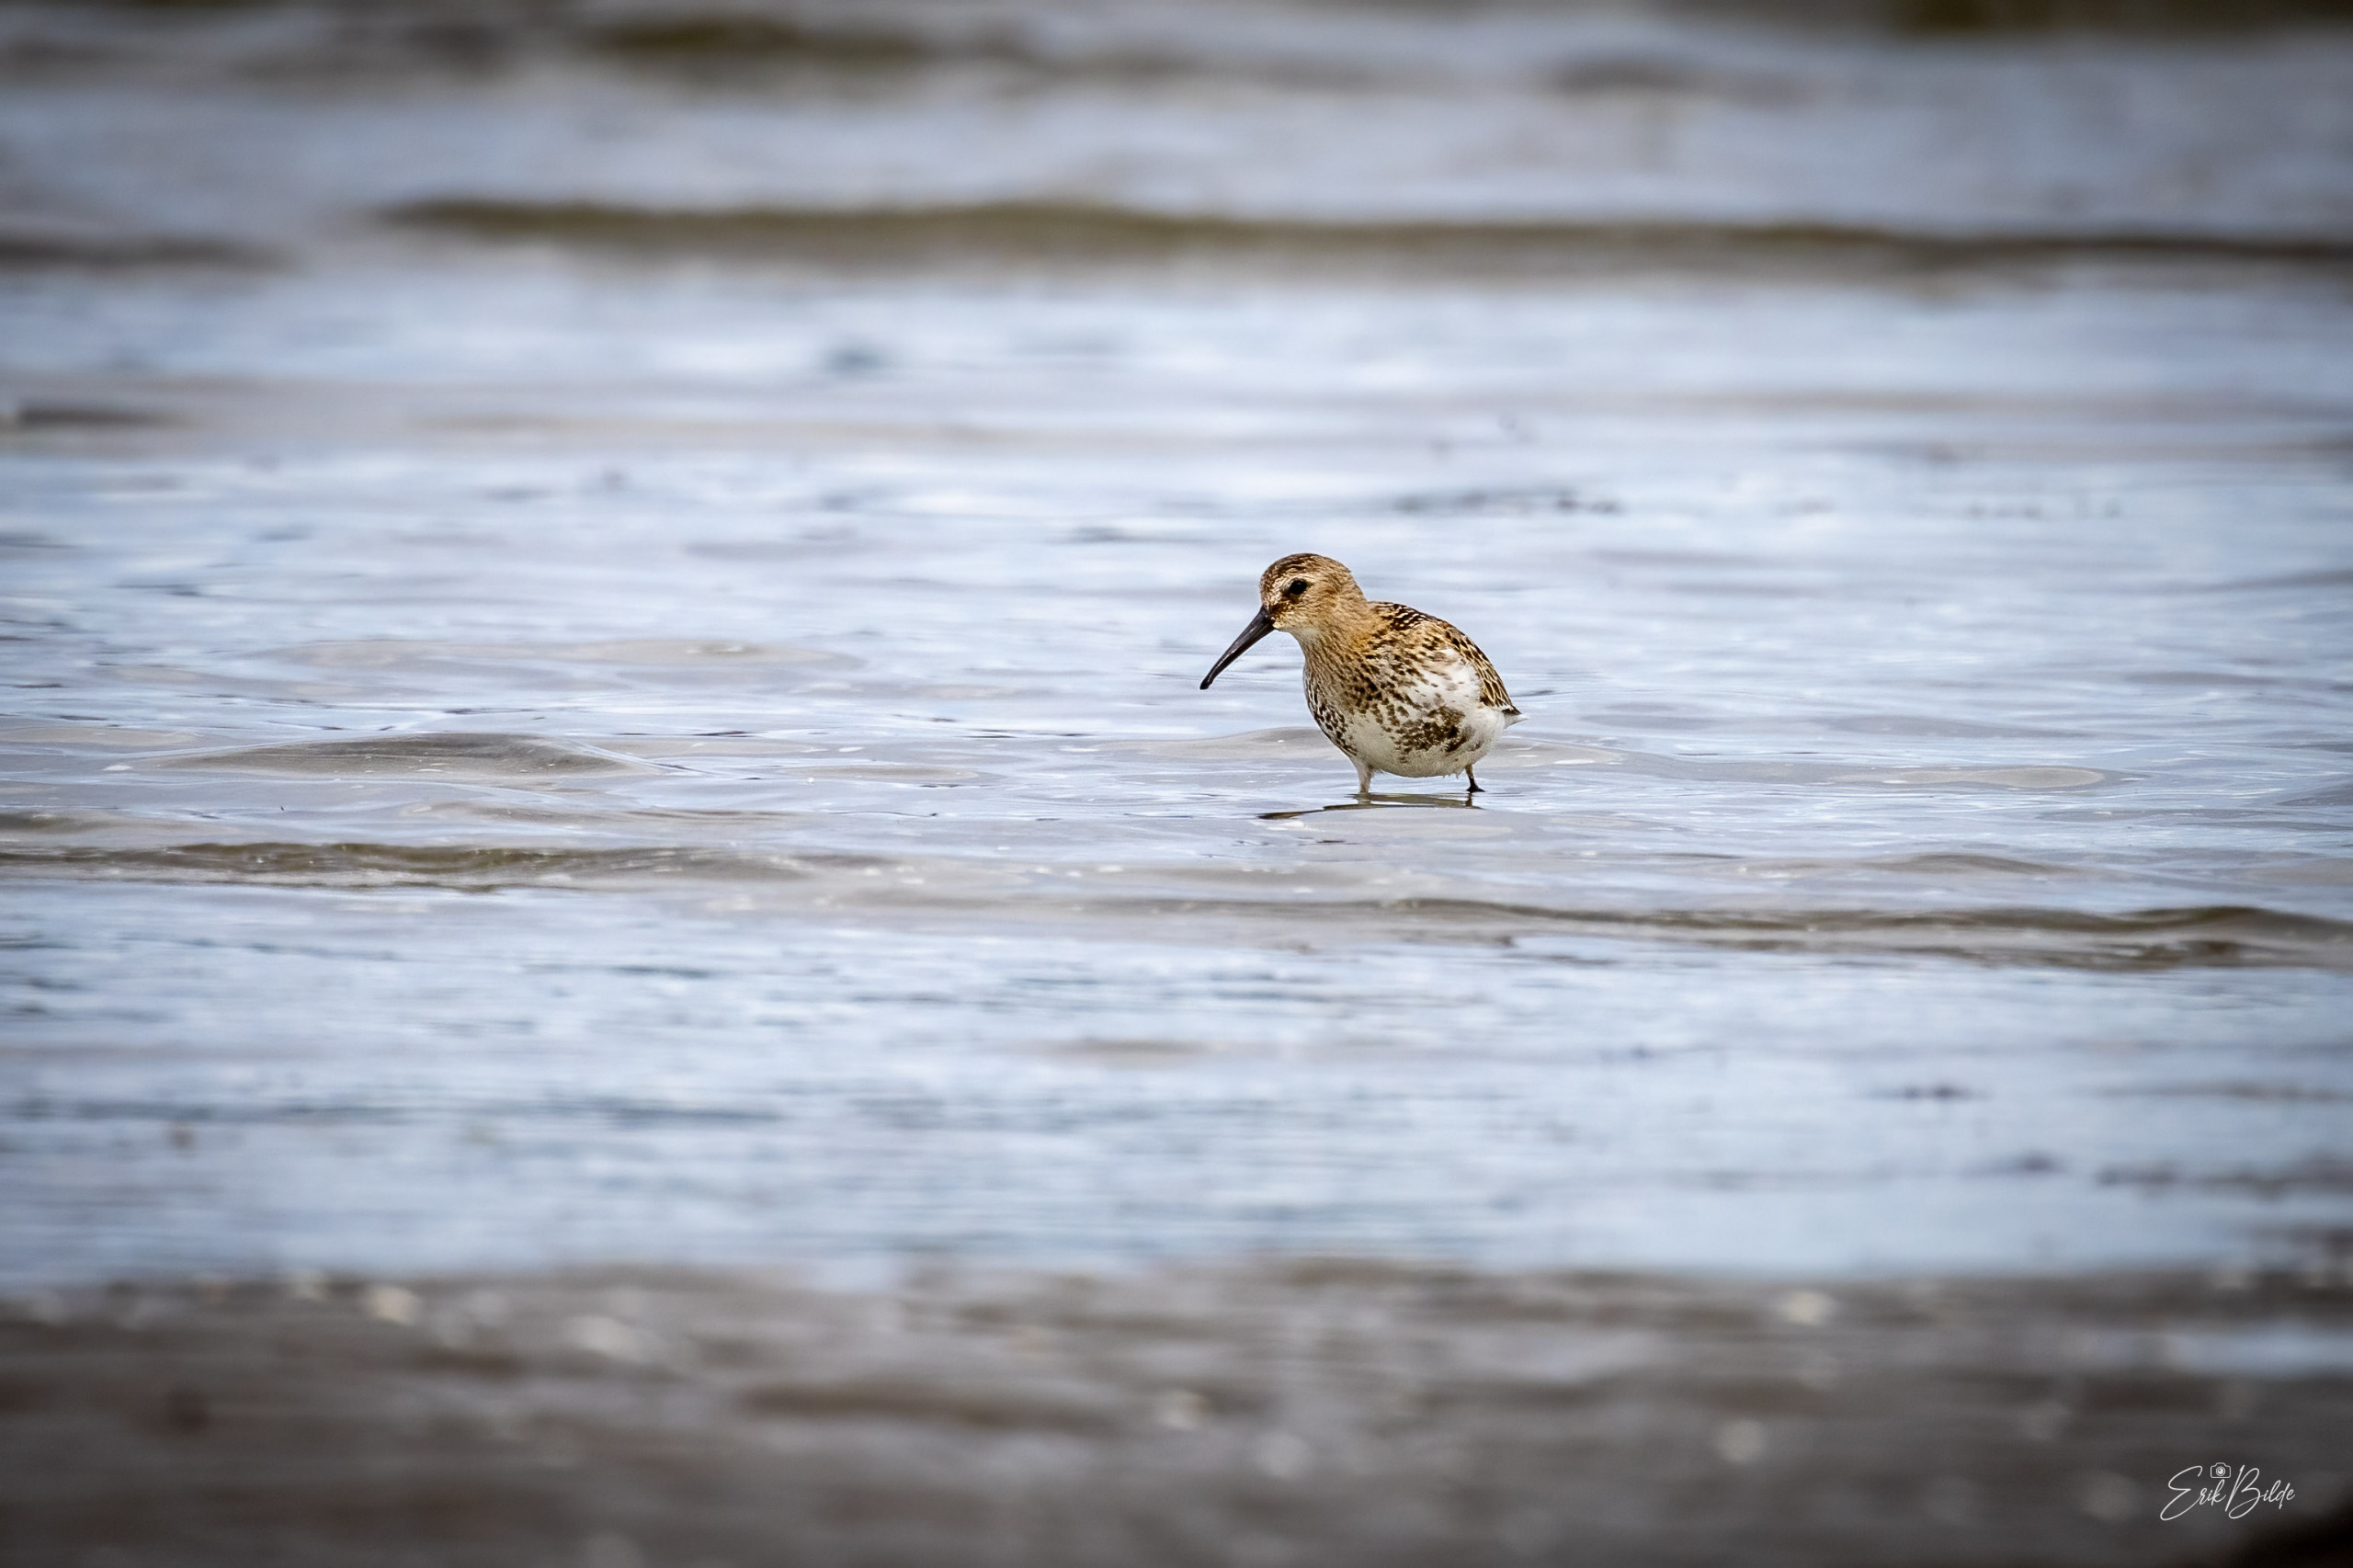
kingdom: Animalia
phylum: Chordata
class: Aves
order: Charadriiformes
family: Scolopacidae
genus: Calidris
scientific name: Calidris alpina
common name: Almindelig ryle
